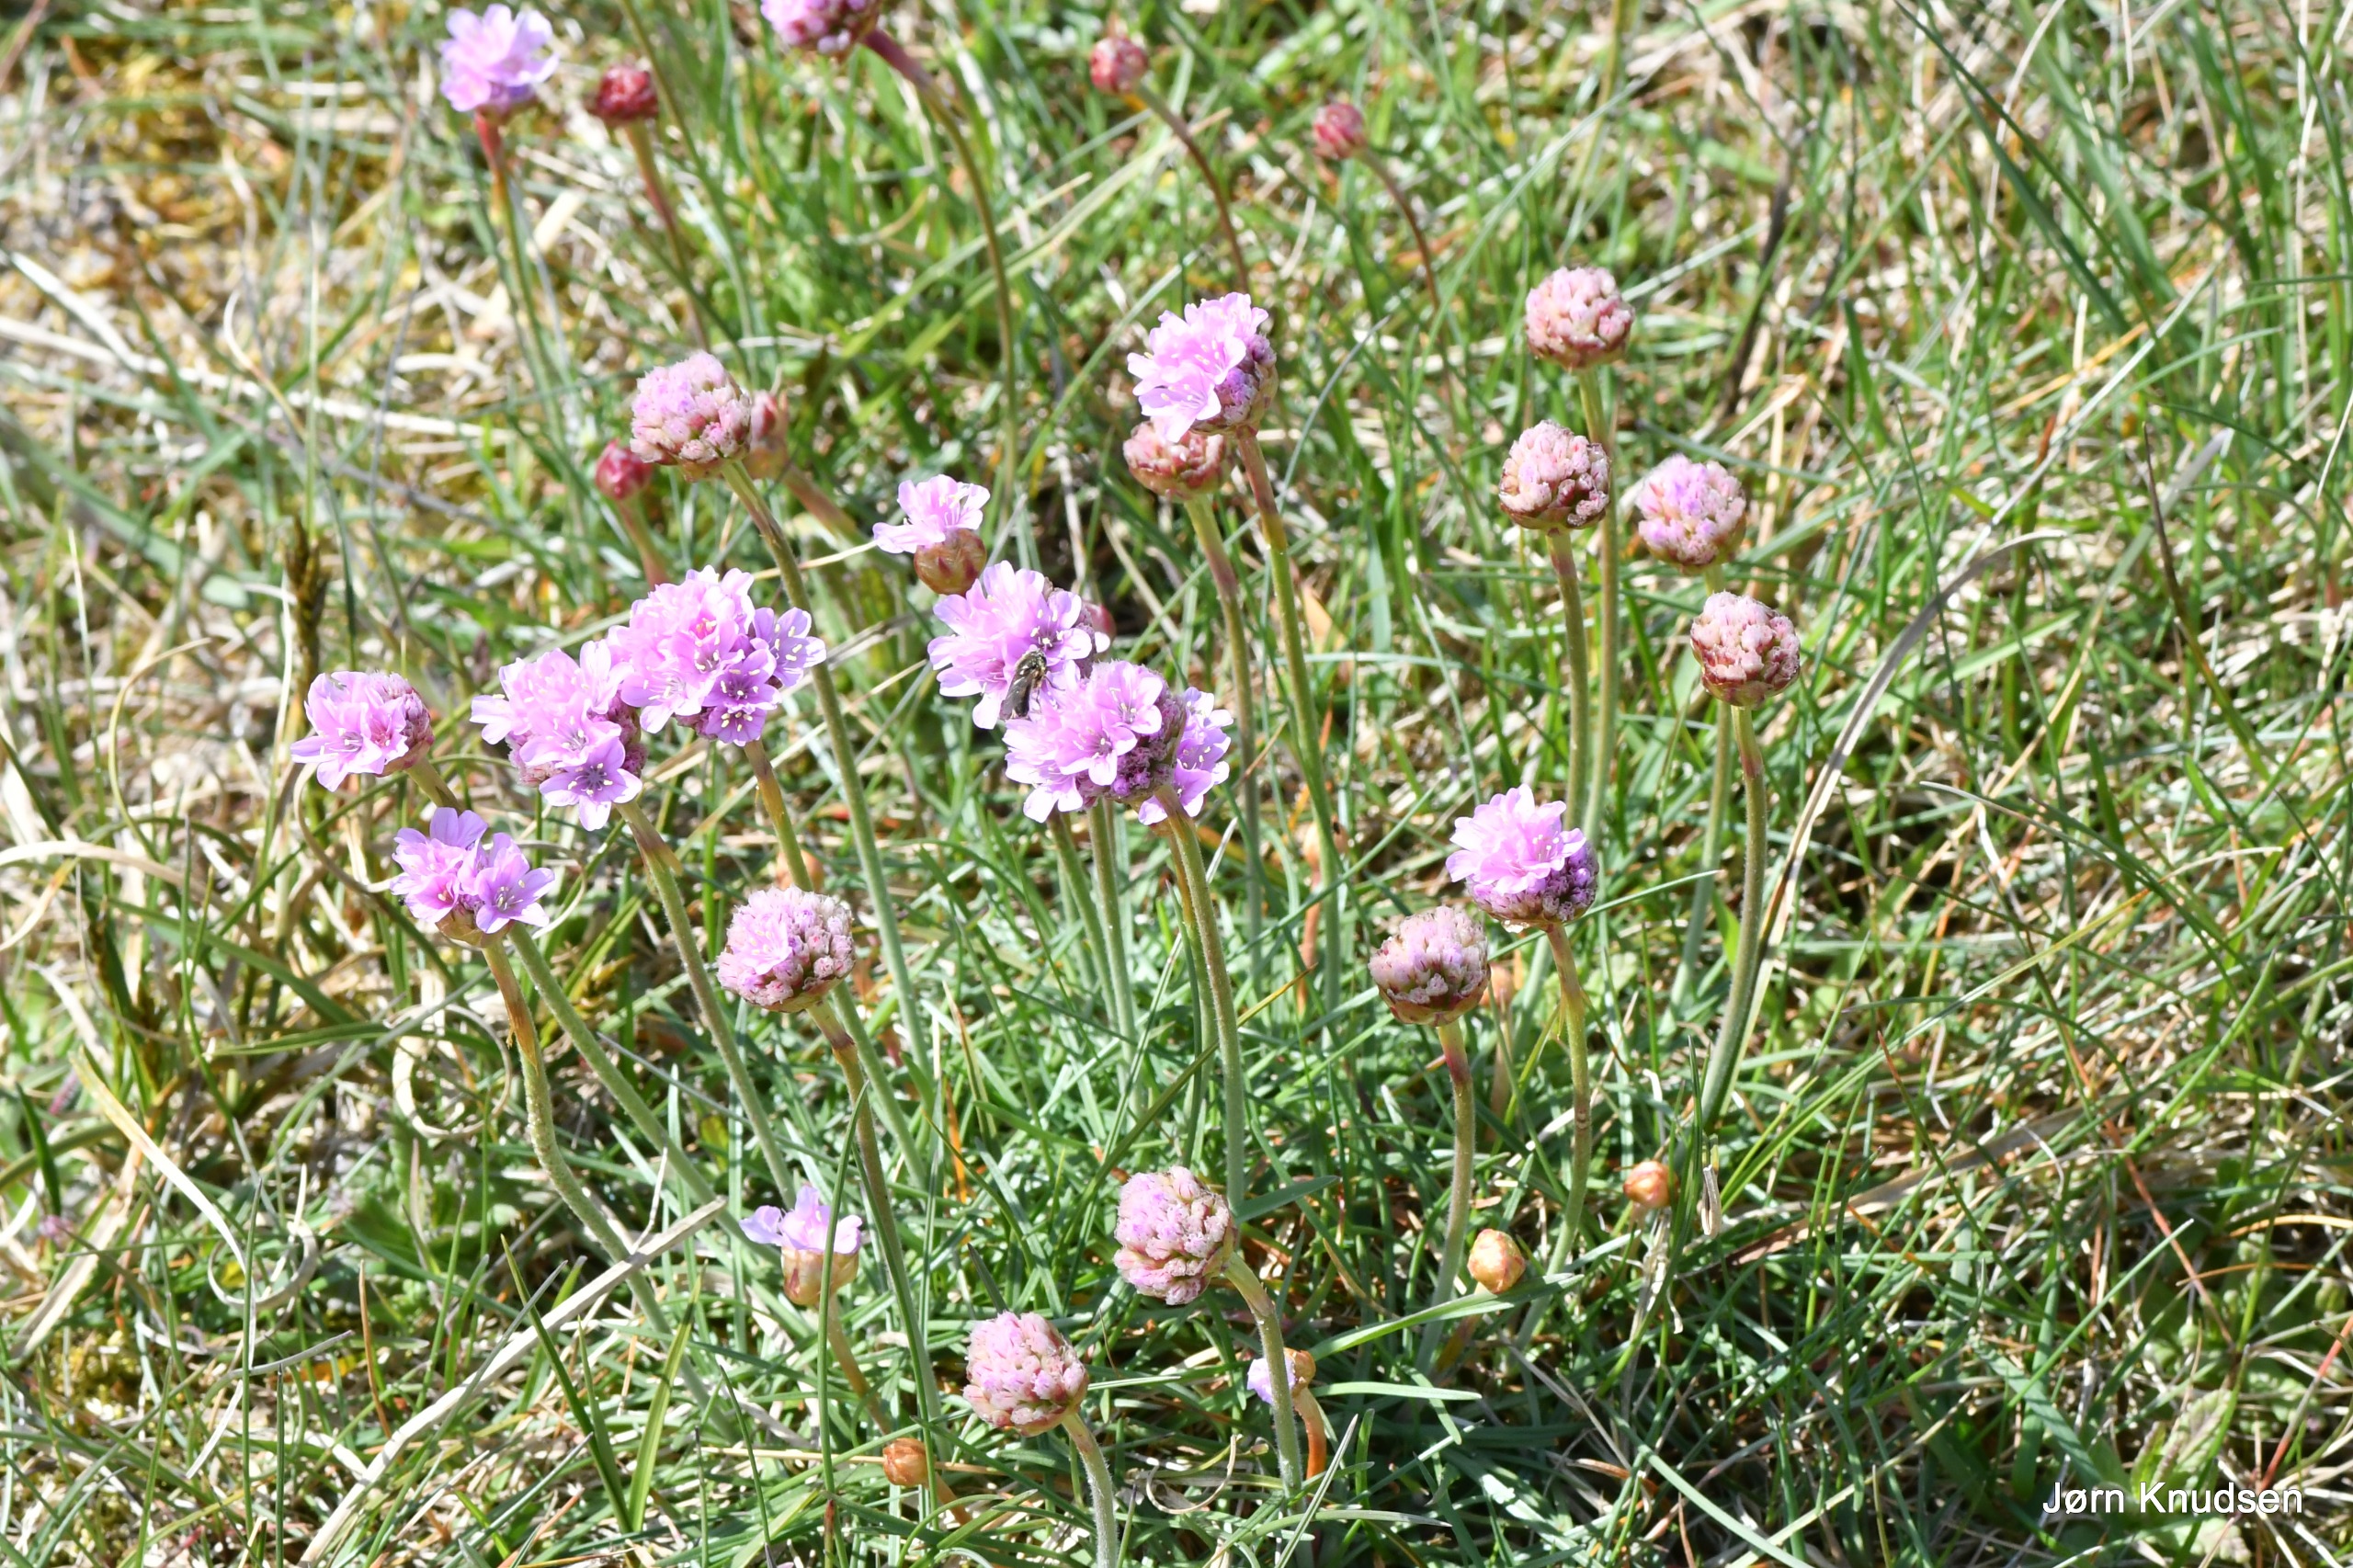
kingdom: Plantae
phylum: Tracheophyta
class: Magnoliopsida
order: Caryophyllales
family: Plumbaginaceae
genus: Armeria
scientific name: Armeria maritima
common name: Engelskgræs
